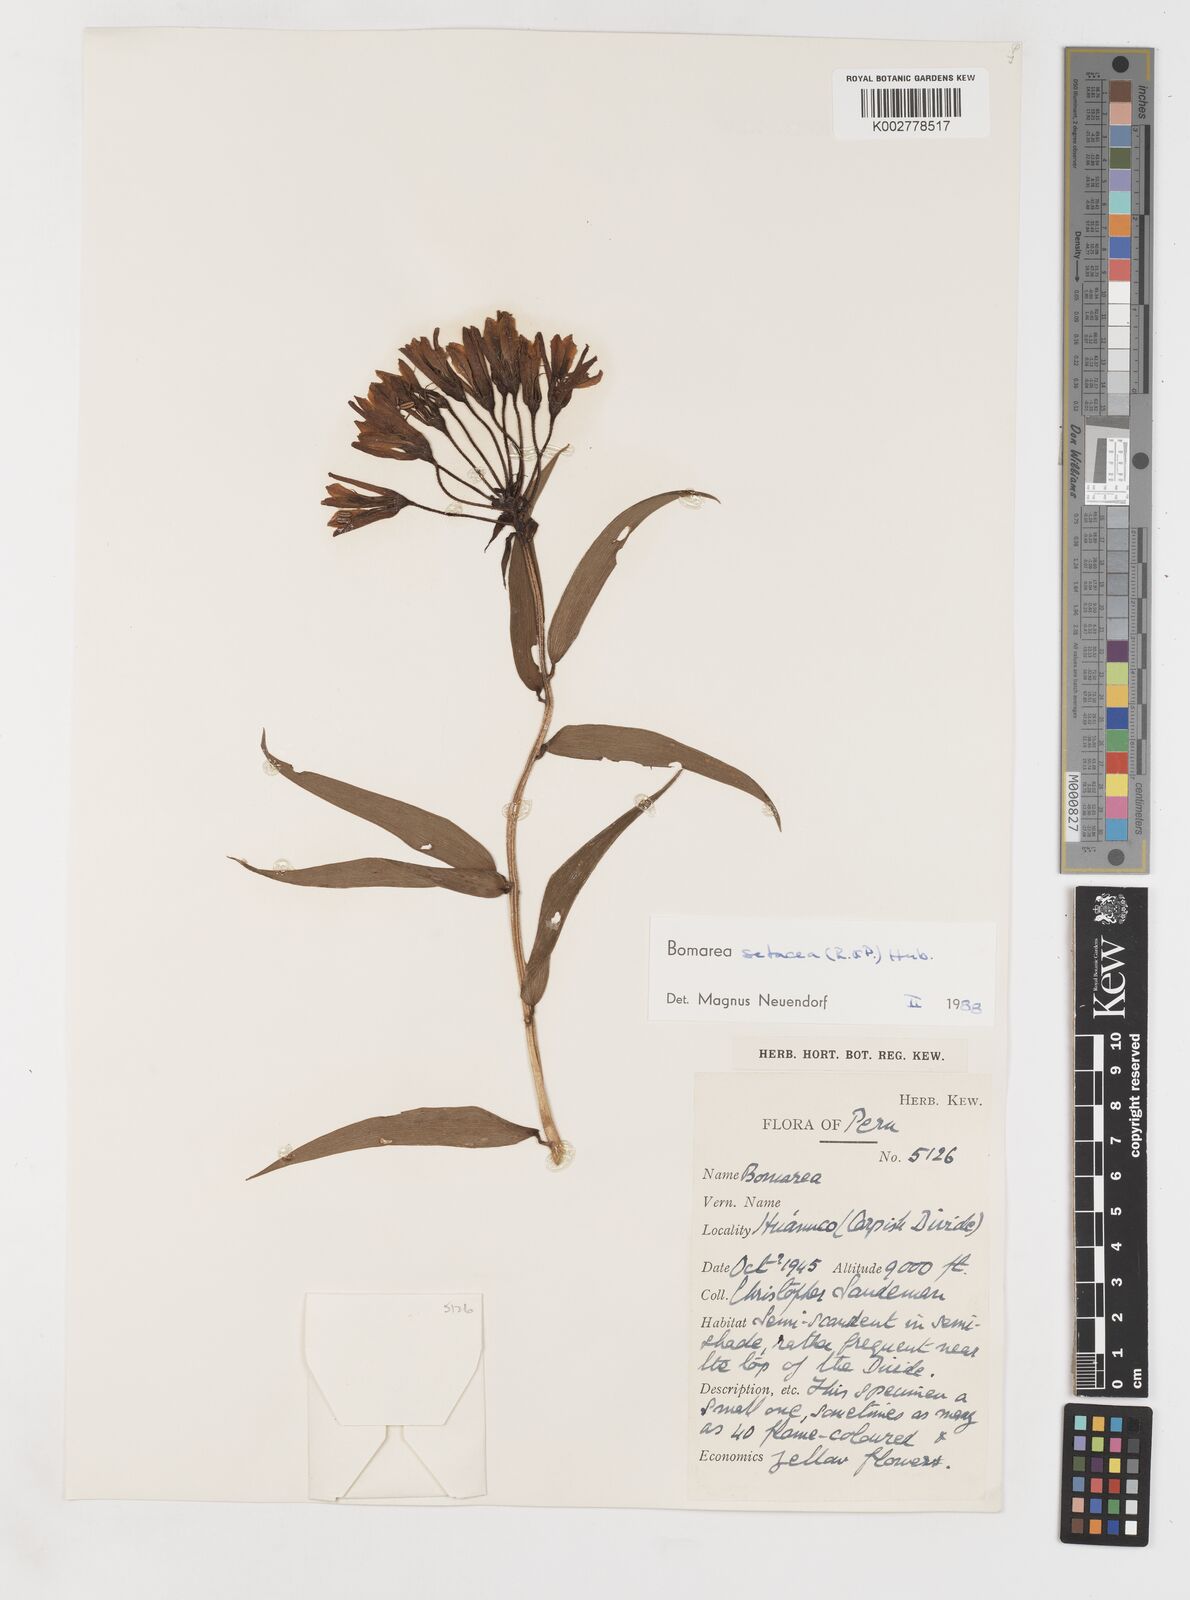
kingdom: Plantae
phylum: Tracheophyta
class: Liliopsida
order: Liliales
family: Alstroemeriaceae
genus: Bomarea
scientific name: Bomarea setacea
